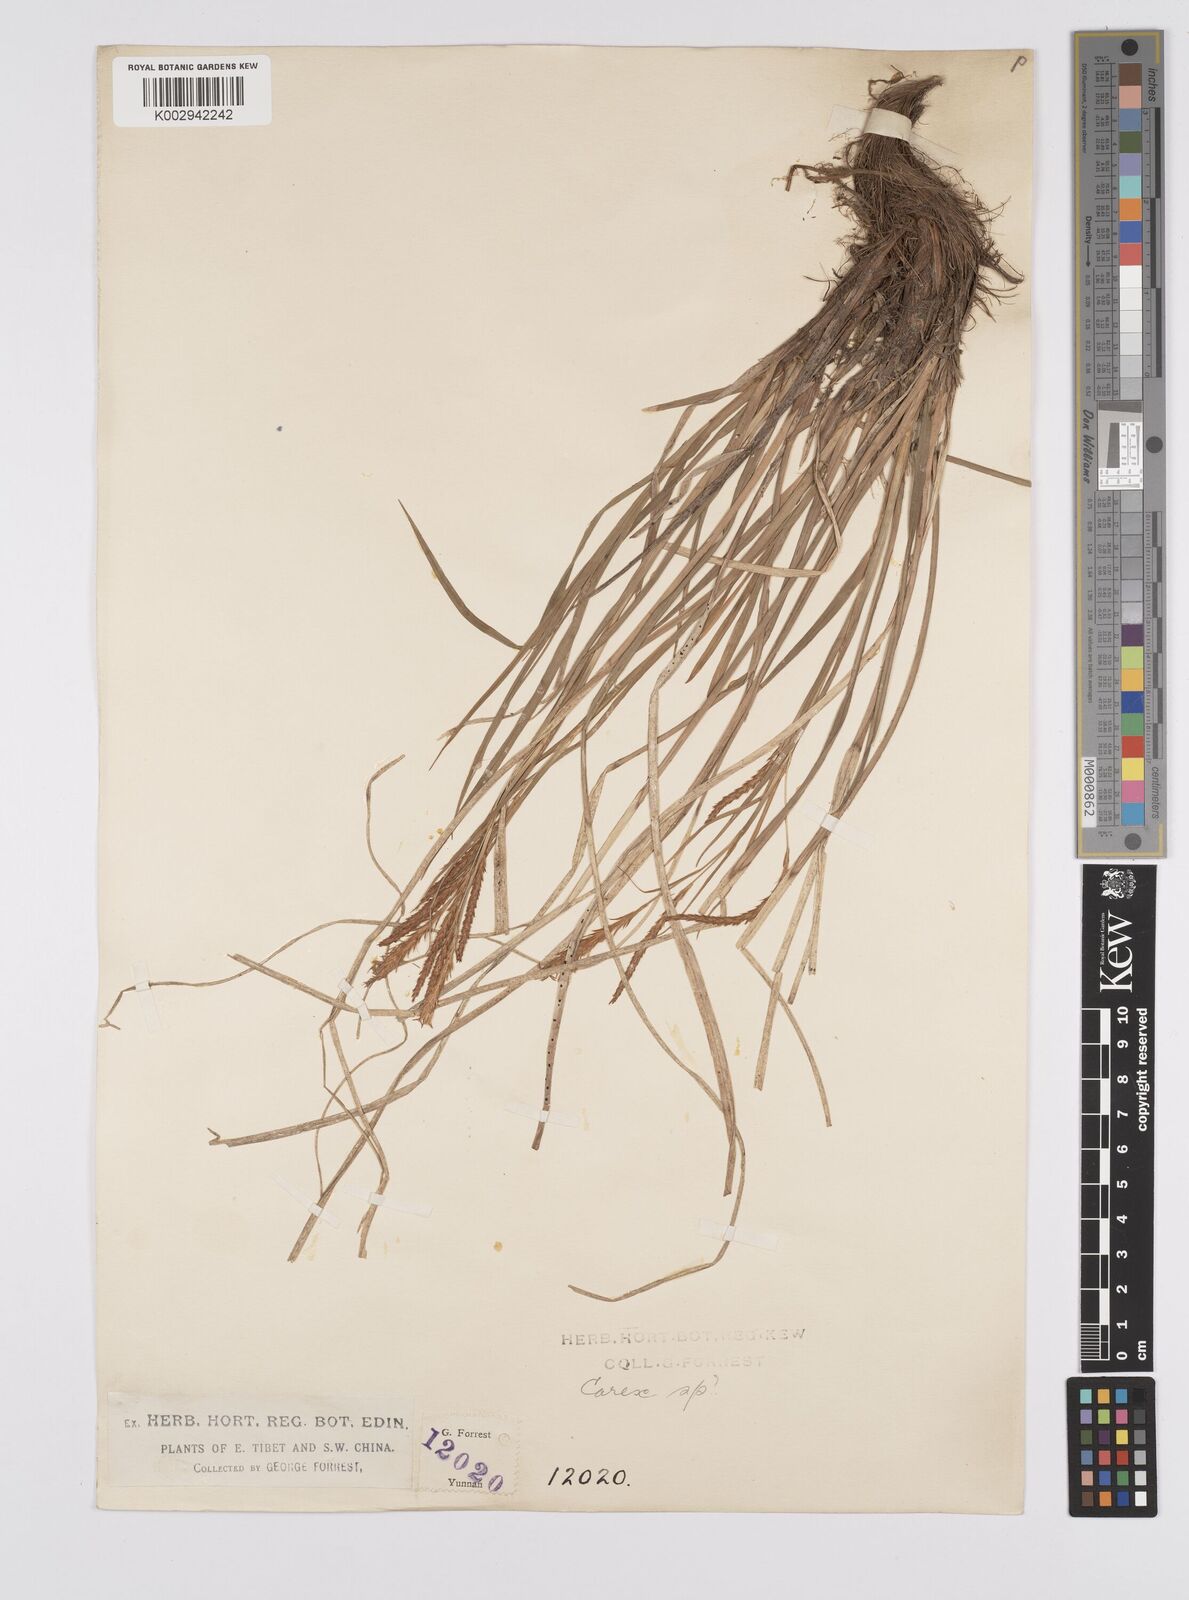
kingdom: Plantae
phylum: Tracheophyta
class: Liliopsida
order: Poales
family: Cyperaceae
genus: Carex
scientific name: Carex morrowii
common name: Japanese sedge
